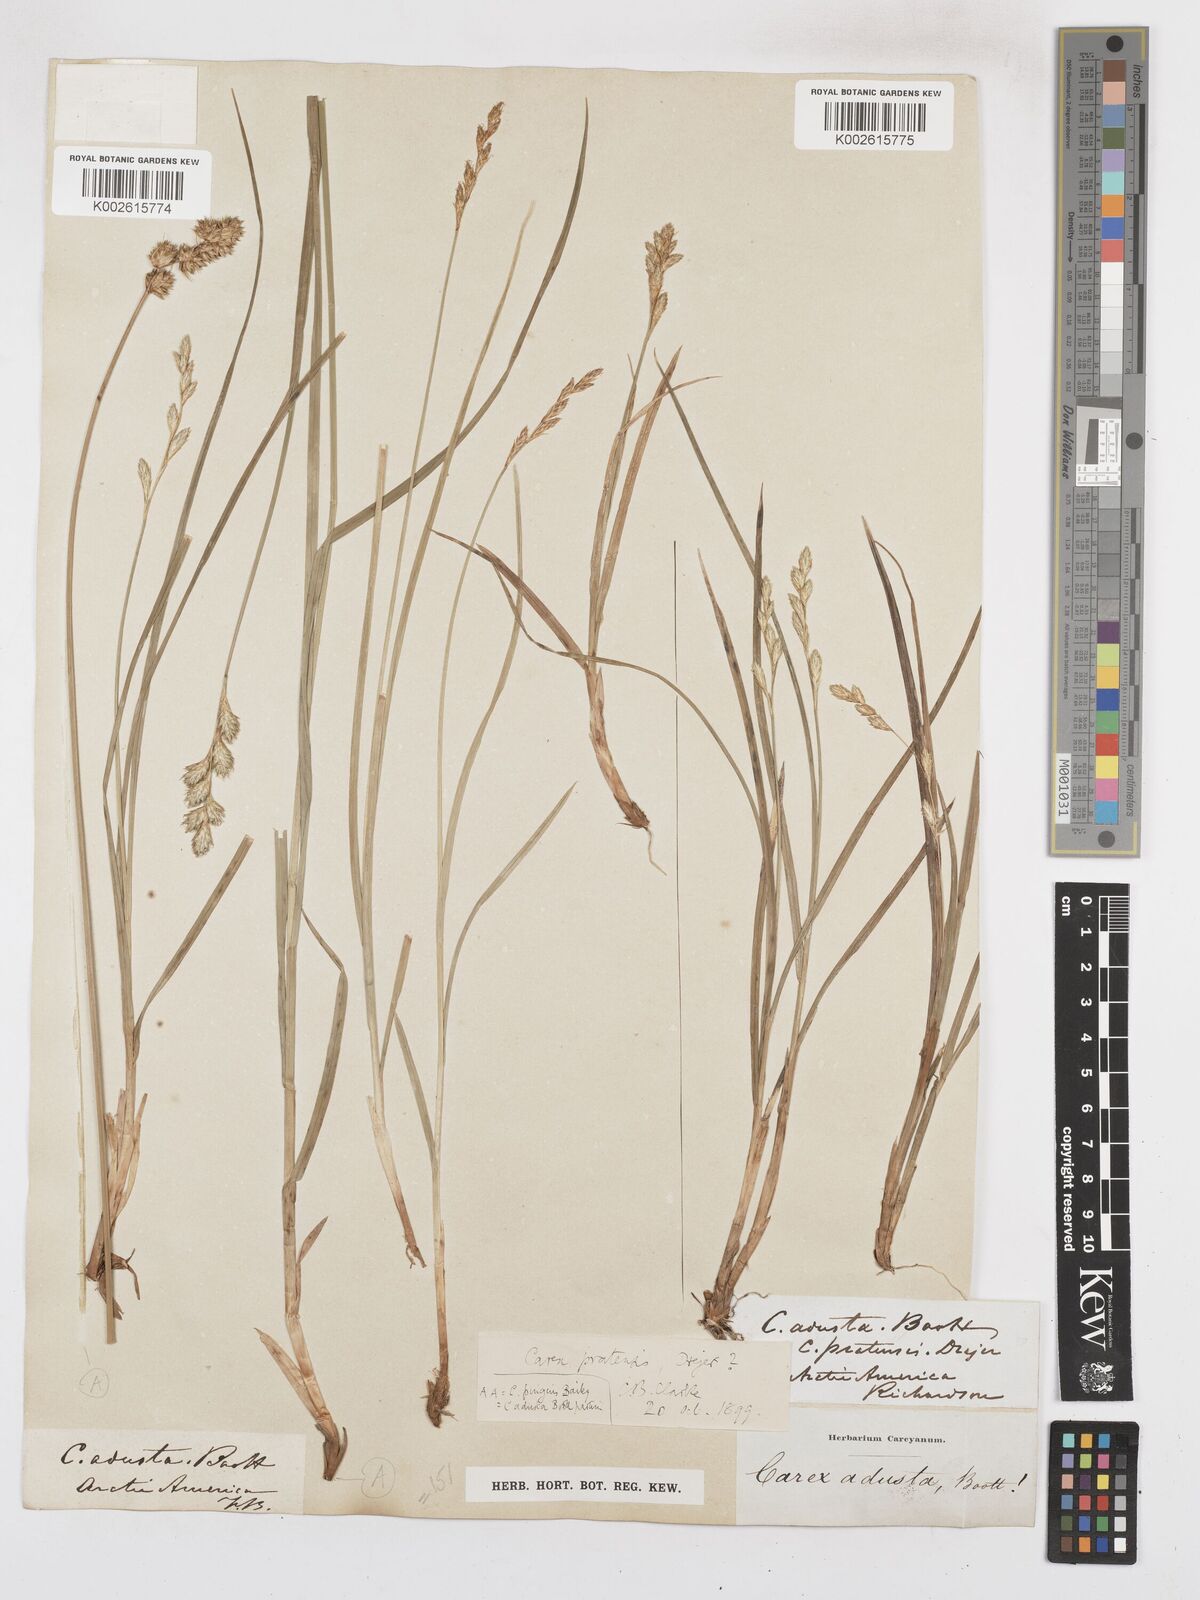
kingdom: Plantae
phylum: Tracheophyta
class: Liliopsida
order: Poales
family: Cyperaceae
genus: Carex
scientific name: Carex praticola
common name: Large-fruited oval sedge
